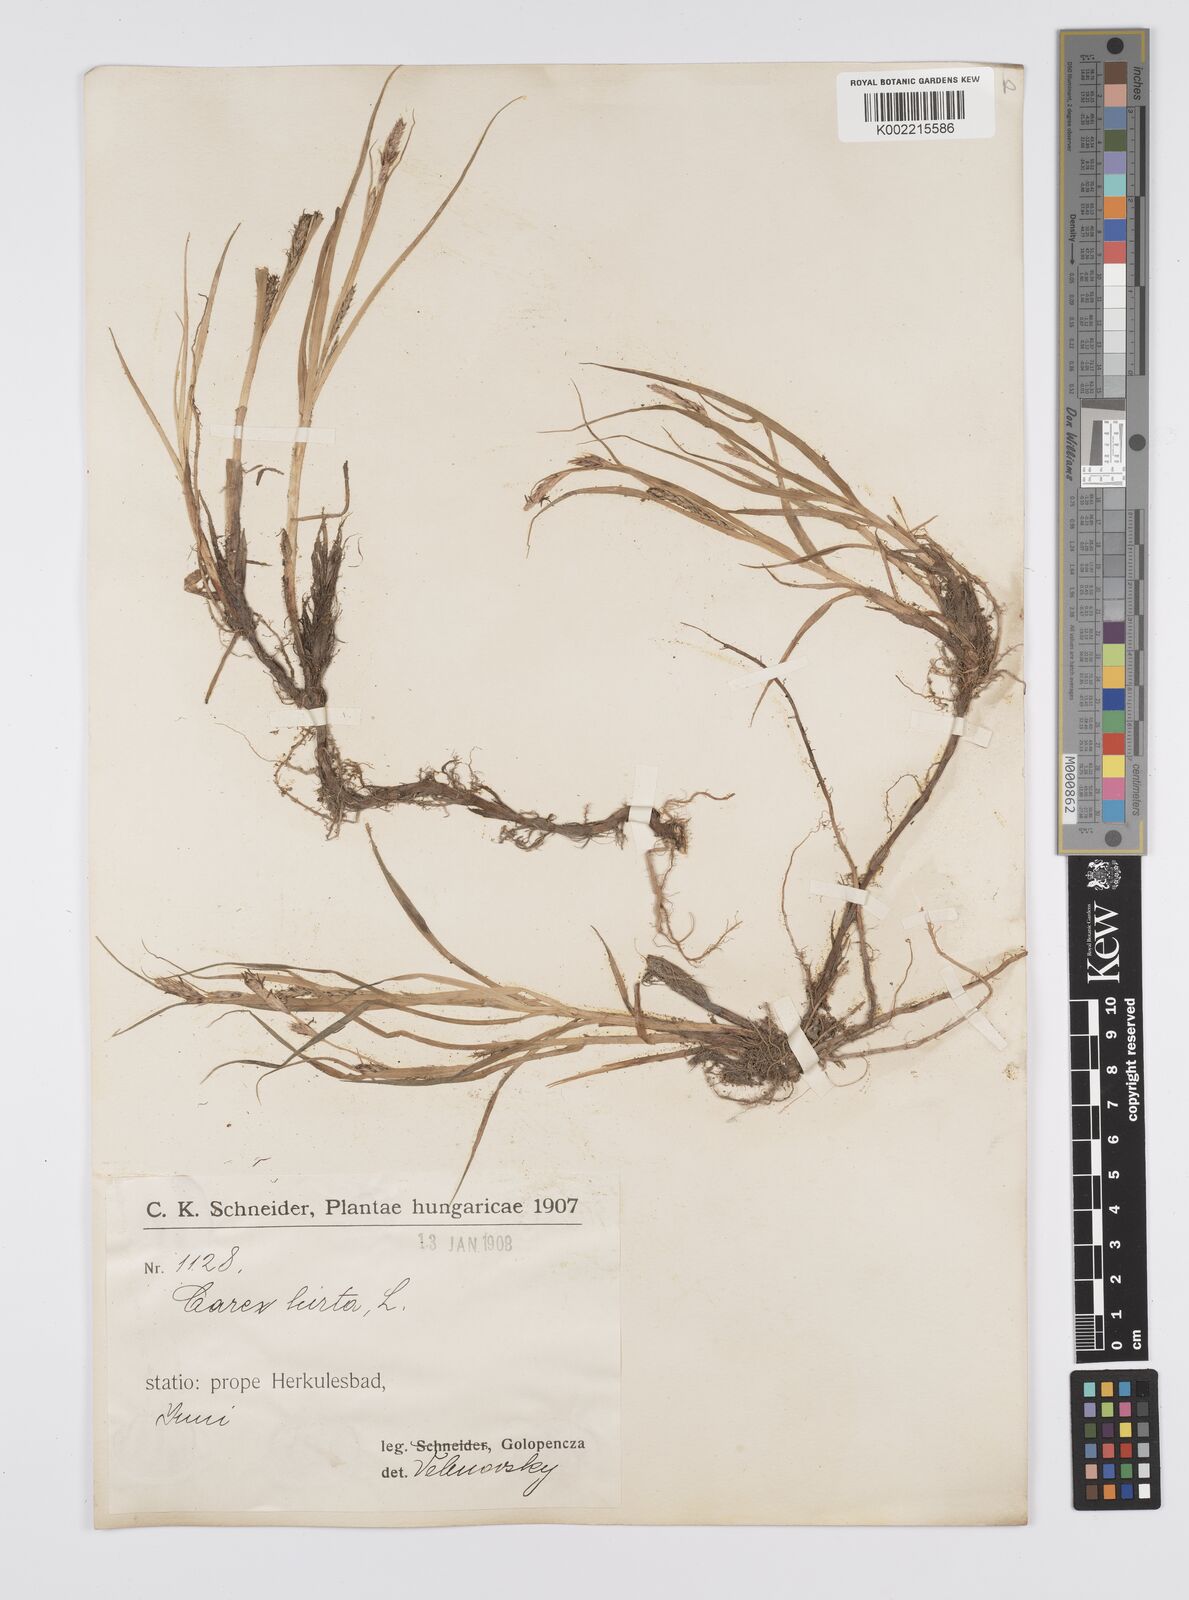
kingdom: Plantae
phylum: Tracheophyta
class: Liliopsida
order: Poales
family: Cyperaceae
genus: Carex
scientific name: Carex hirta
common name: Hairy sedge
